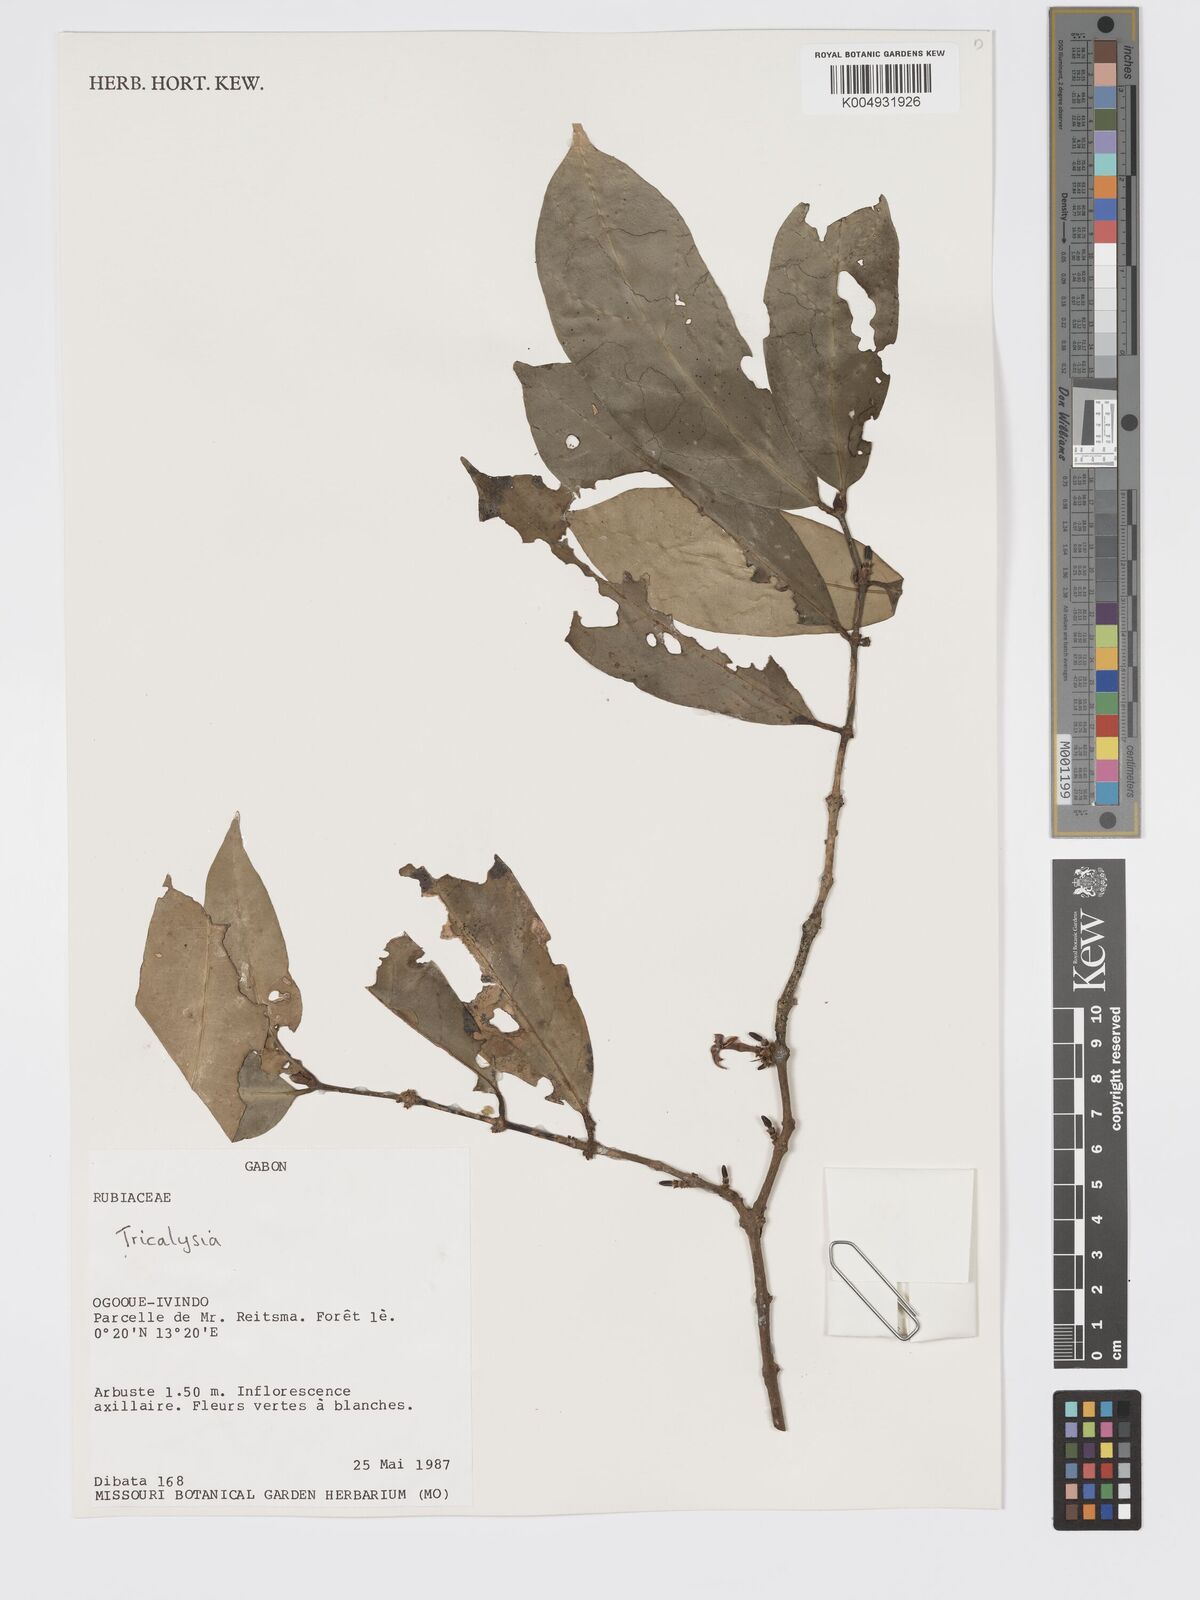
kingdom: Plantae
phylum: Tracheophyta
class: Magnoliopsida
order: Gentianales
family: Rubiaceae
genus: Tricalysia
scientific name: Tricalysia
